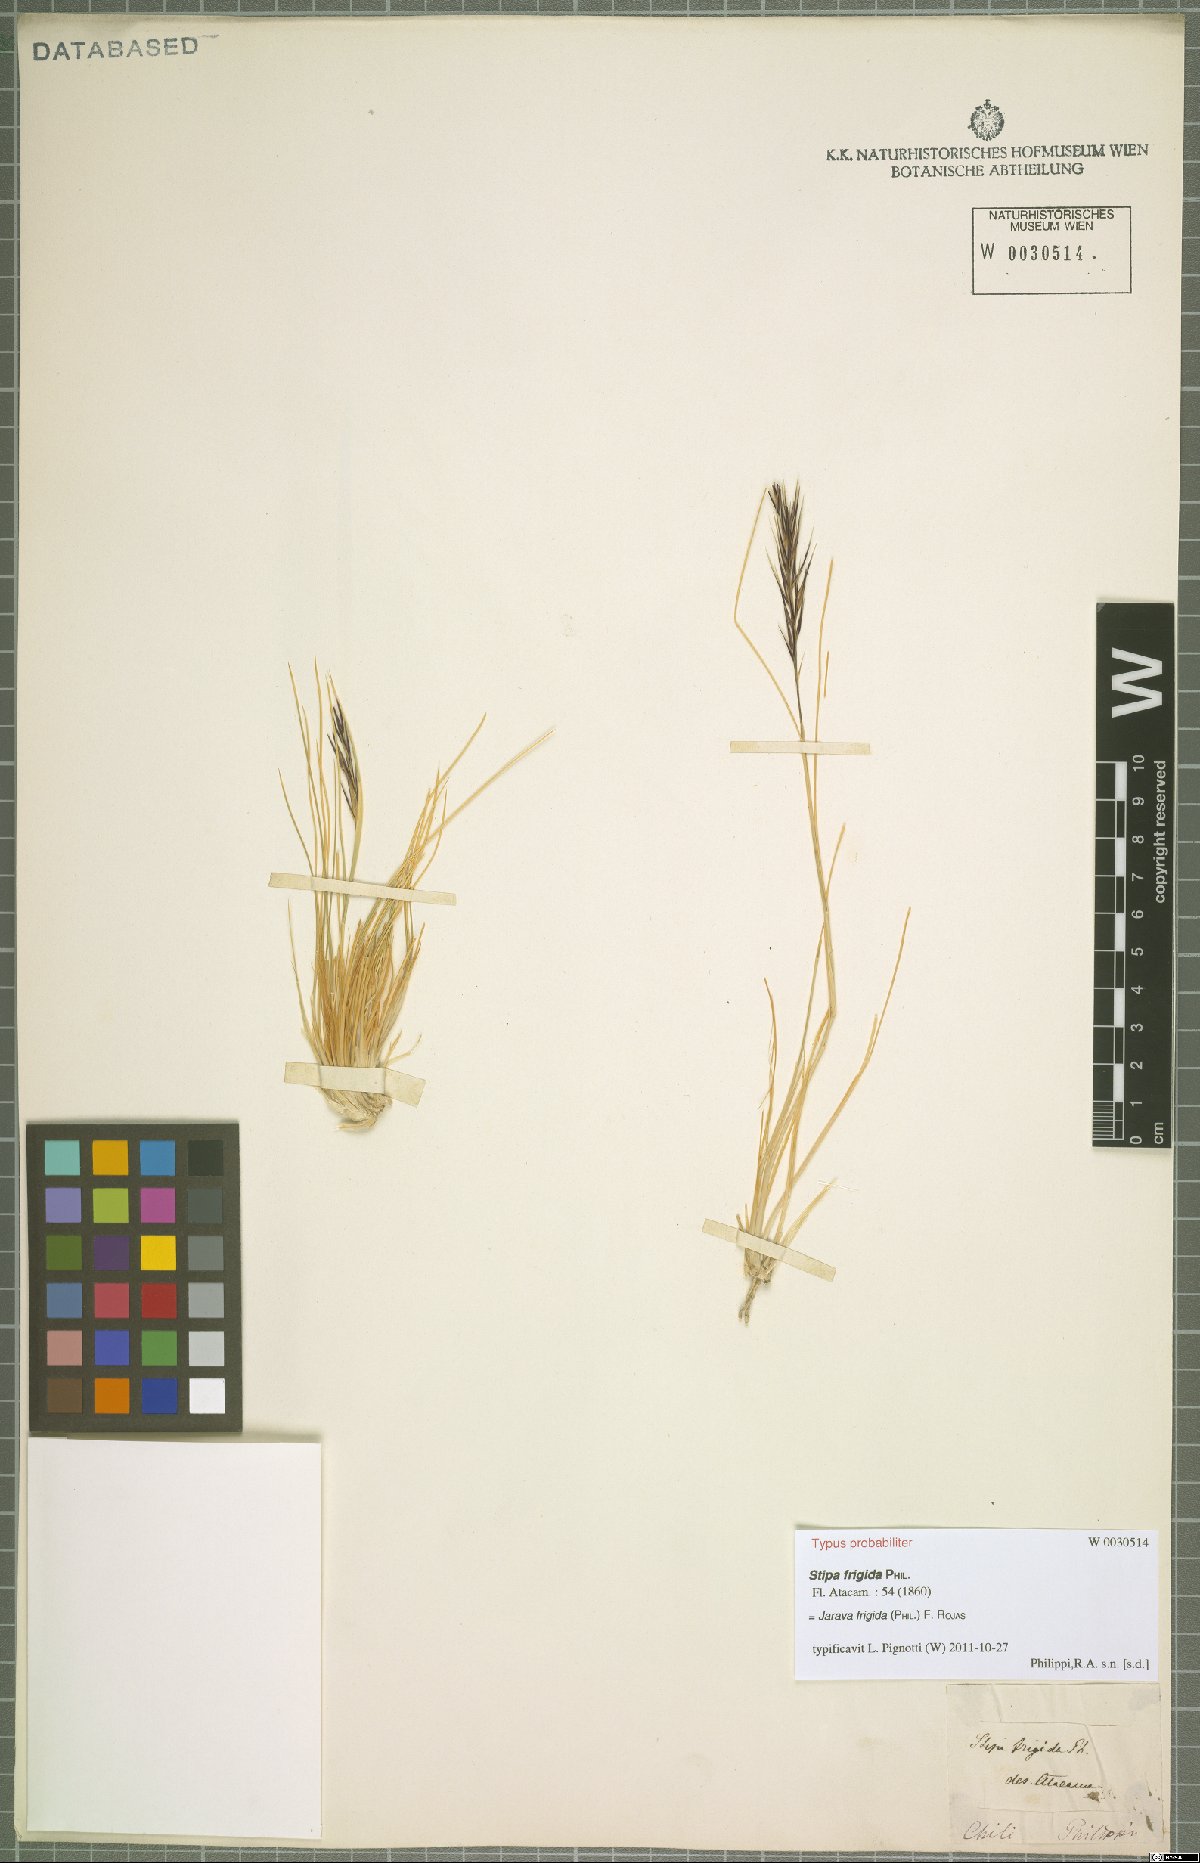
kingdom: Plantae
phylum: Tracheophyta
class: Liliopsida
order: Poales
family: Poaceae
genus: Pappostipa
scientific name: Pappostipa frigida
